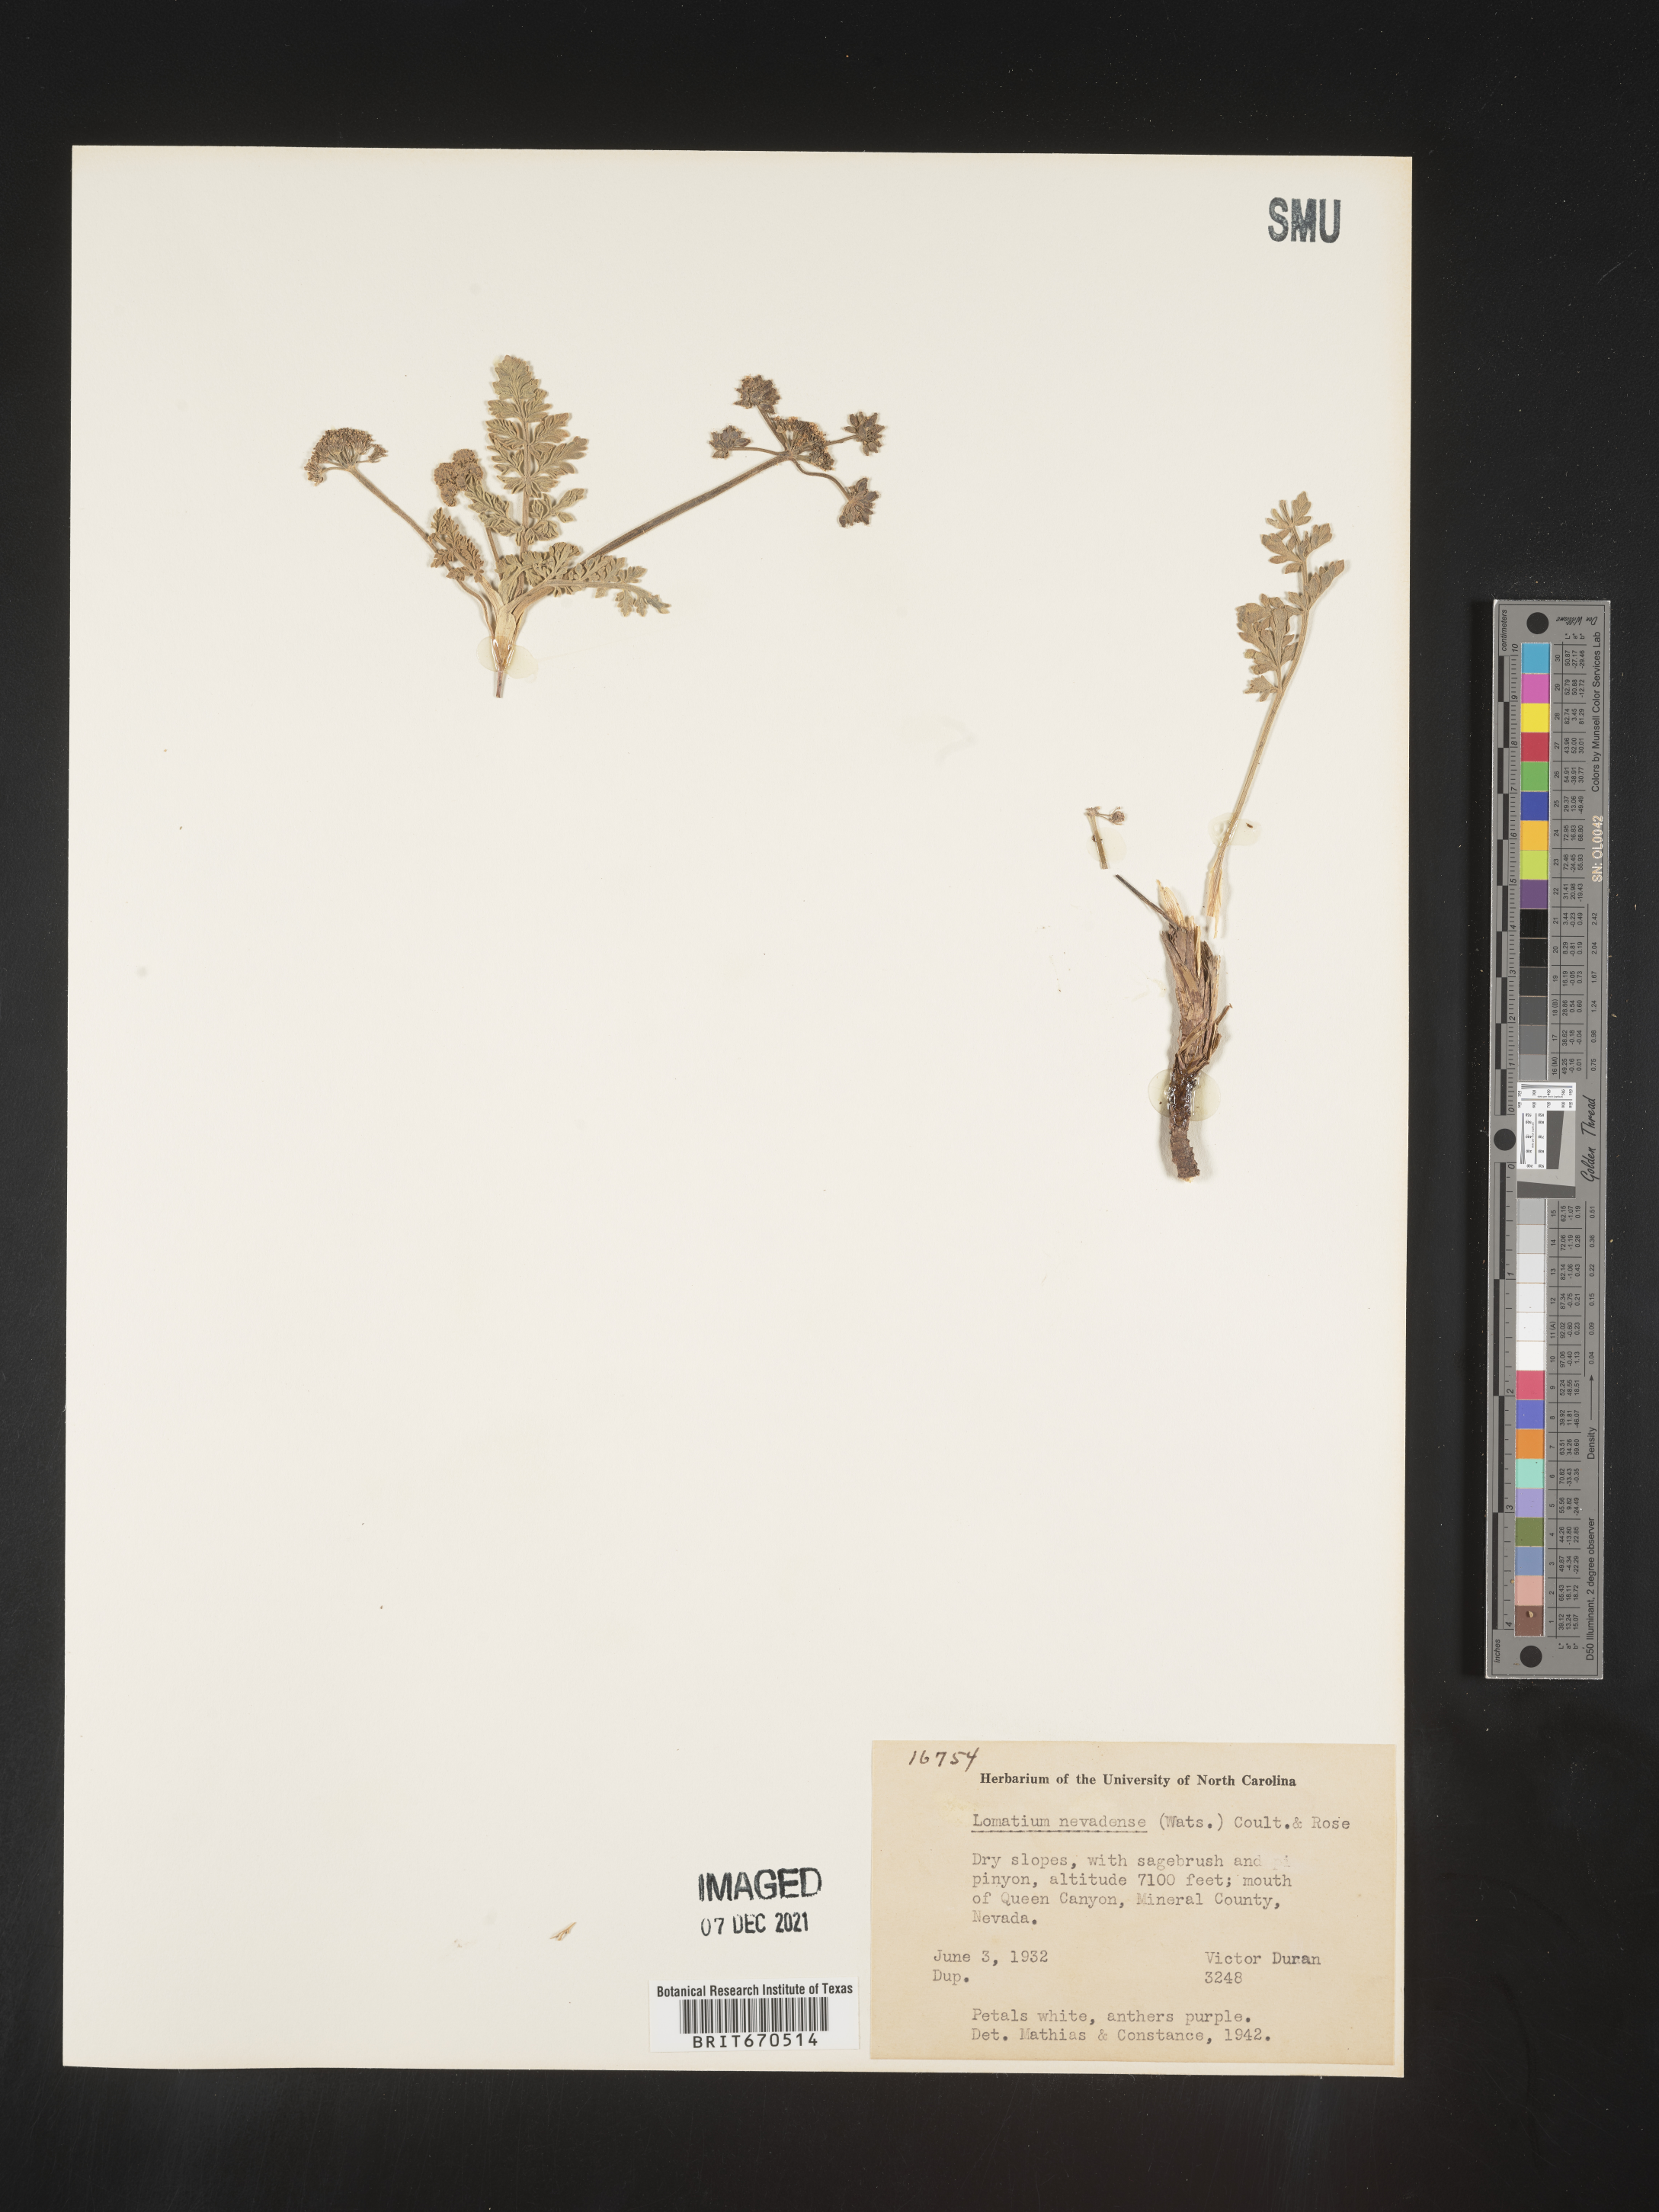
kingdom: Plantae
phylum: Tracheophyta
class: Magnoliopsida
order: Apiales
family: Apiaceae
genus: Lomatium
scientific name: Lomatium nevadense
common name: Nevada lomatium
